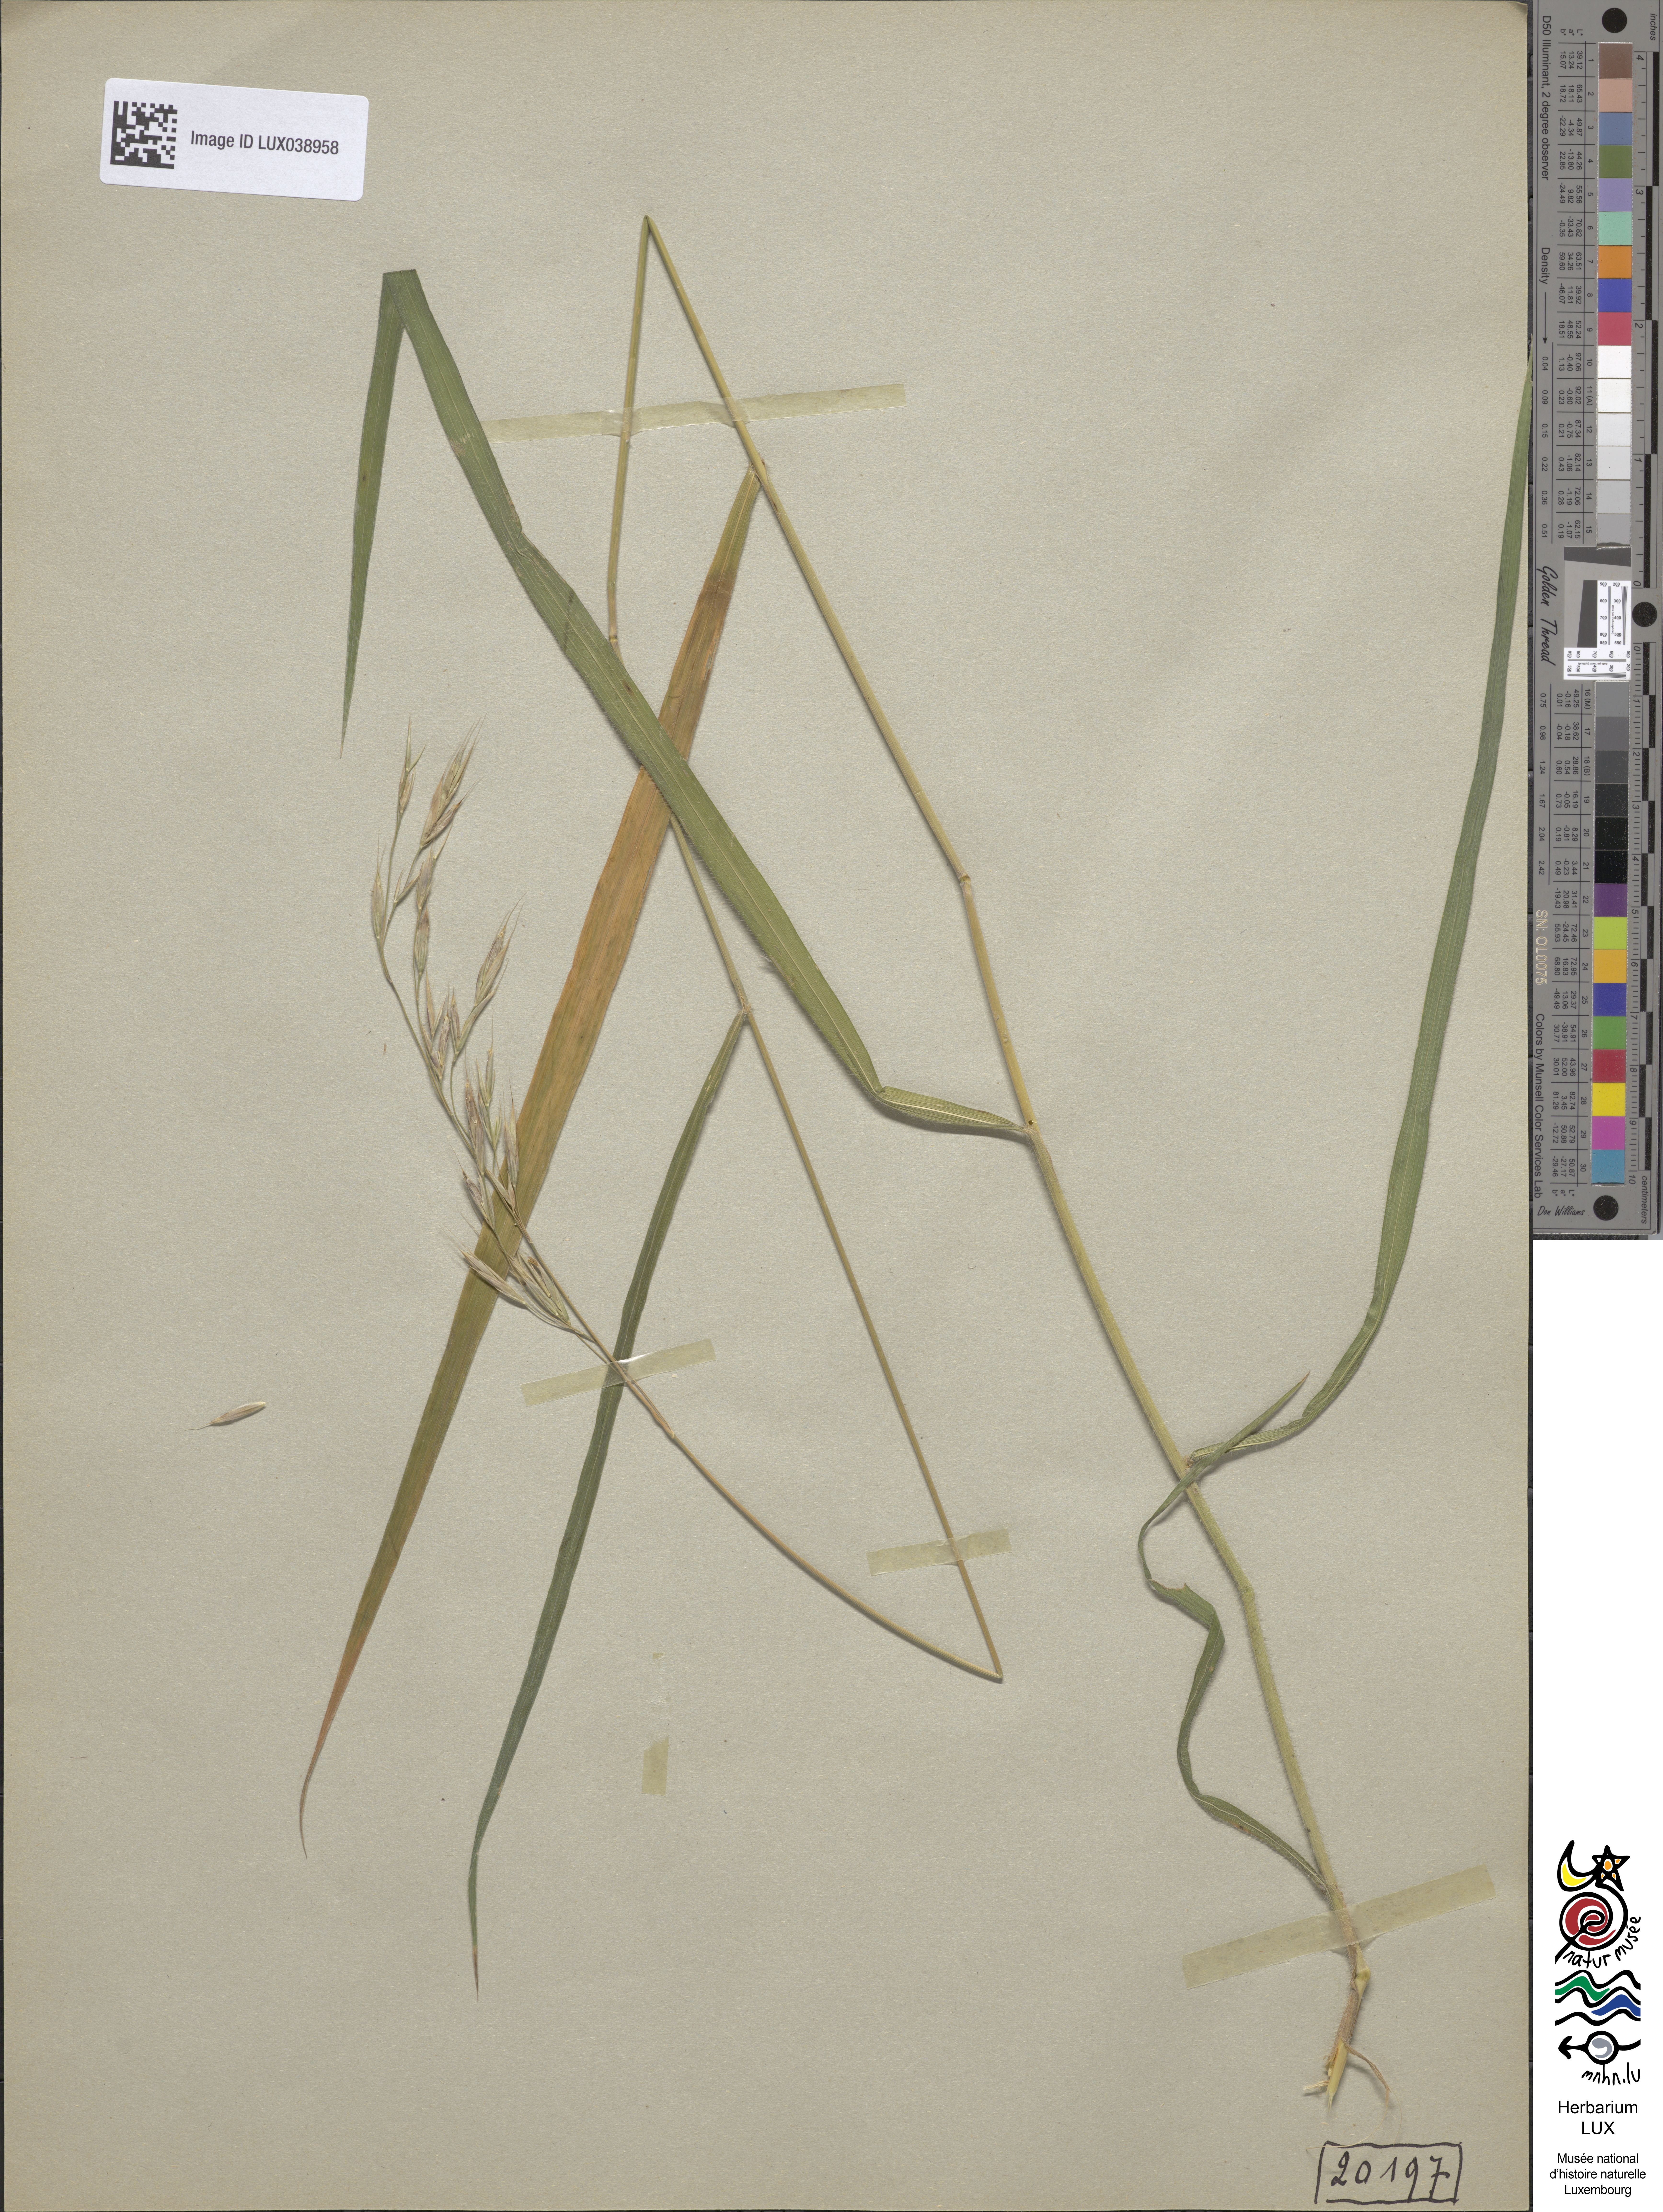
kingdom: Plantae
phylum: Tracheophyta
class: Liliopsida
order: Poales
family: Poaceae
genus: Bromus
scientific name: Bromus benekenii
